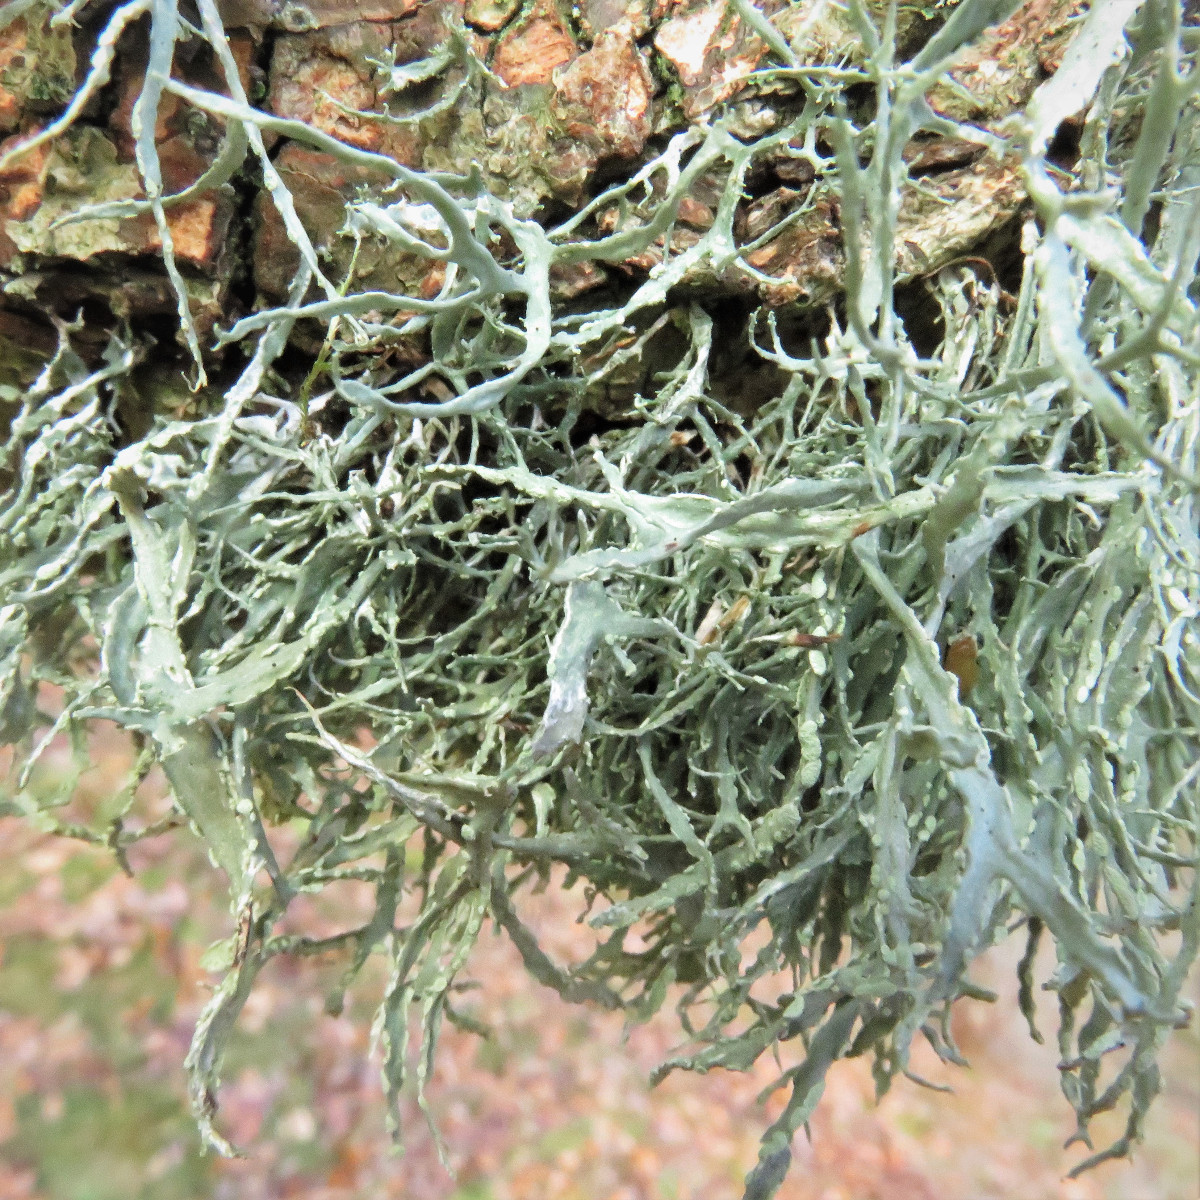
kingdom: Fungi
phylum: Ascomycota
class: Lecanoromycetes
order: Lecanorales
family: Ramalinaceae
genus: Ramalina
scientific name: Ramalina farinacea
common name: melet grenlav
